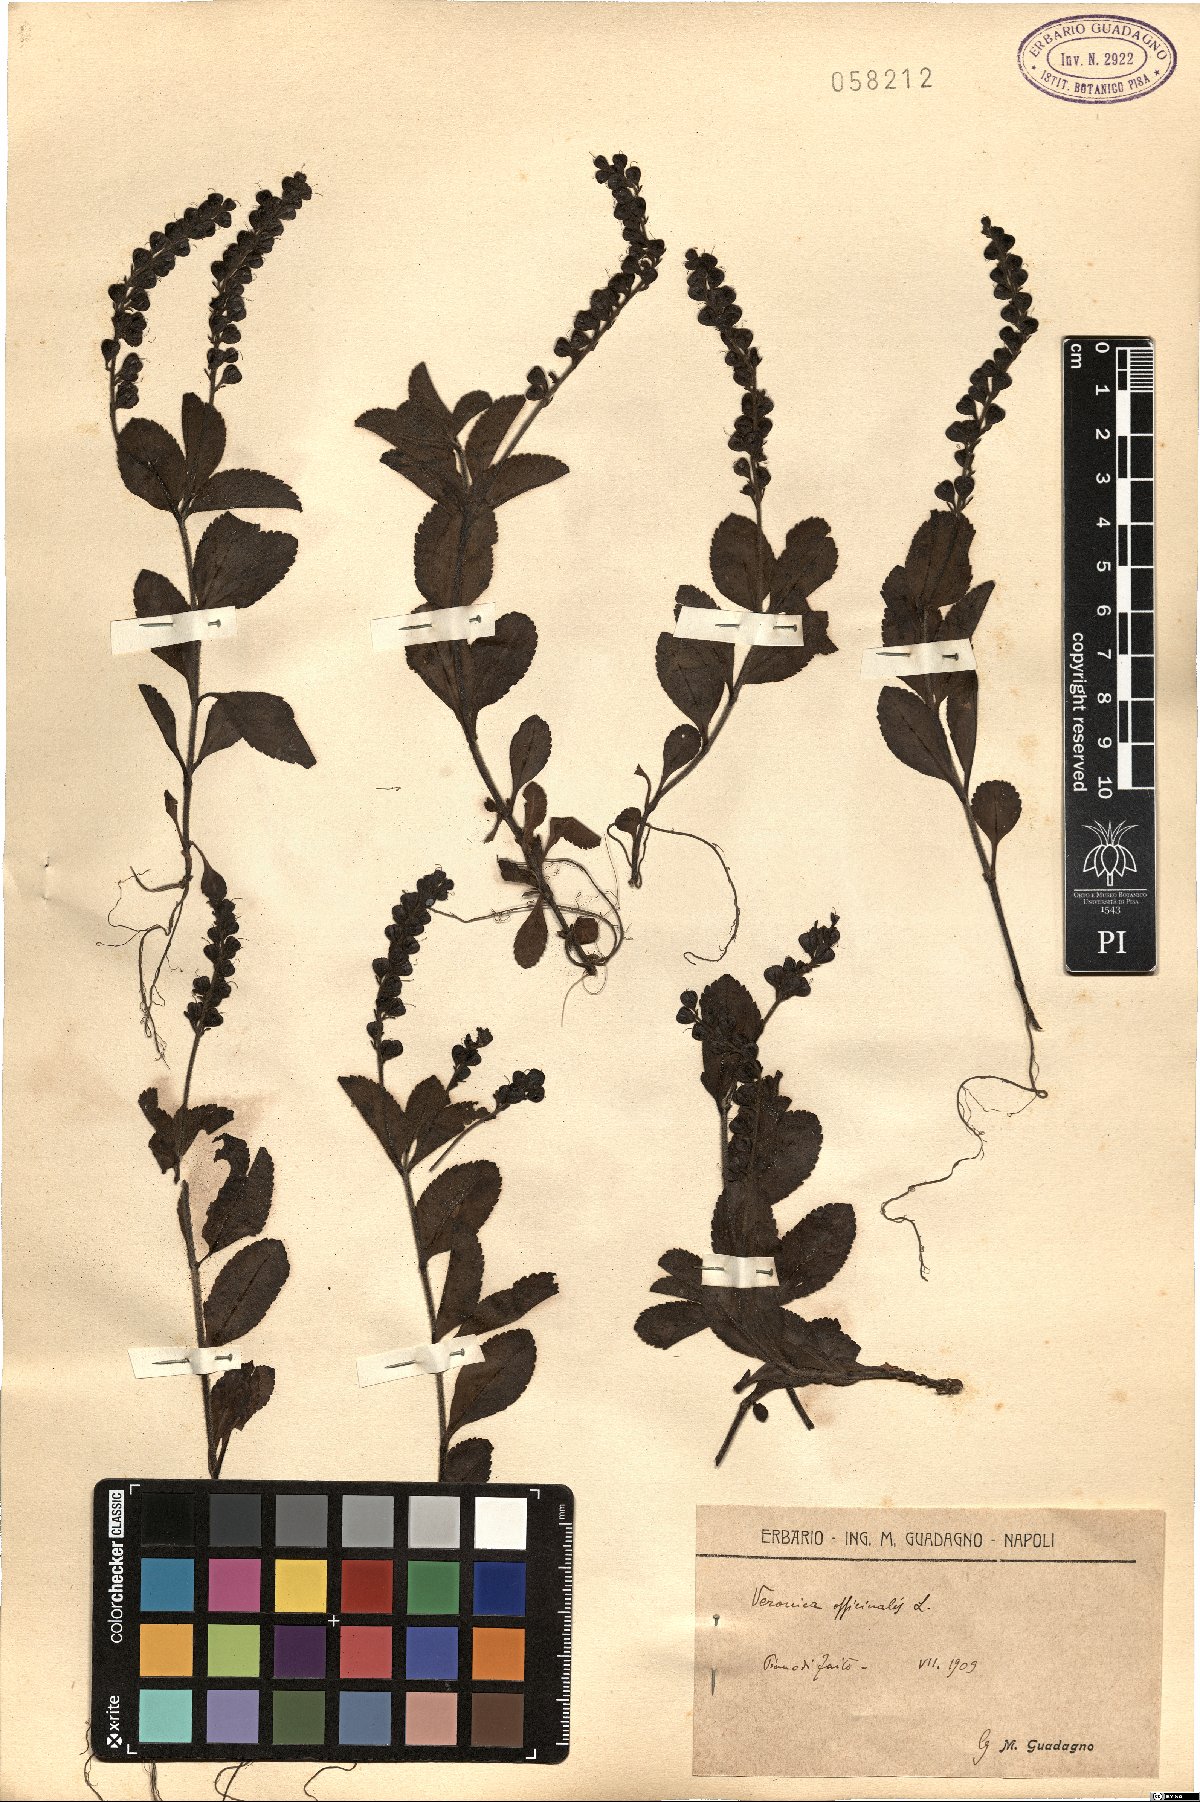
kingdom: Plantae
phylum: Tracheophyta
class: Magnoliopsida
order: Lamiales
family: Plantaginaceae
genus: Veronica
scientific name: Veronica officinalis
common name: Common speedwell
